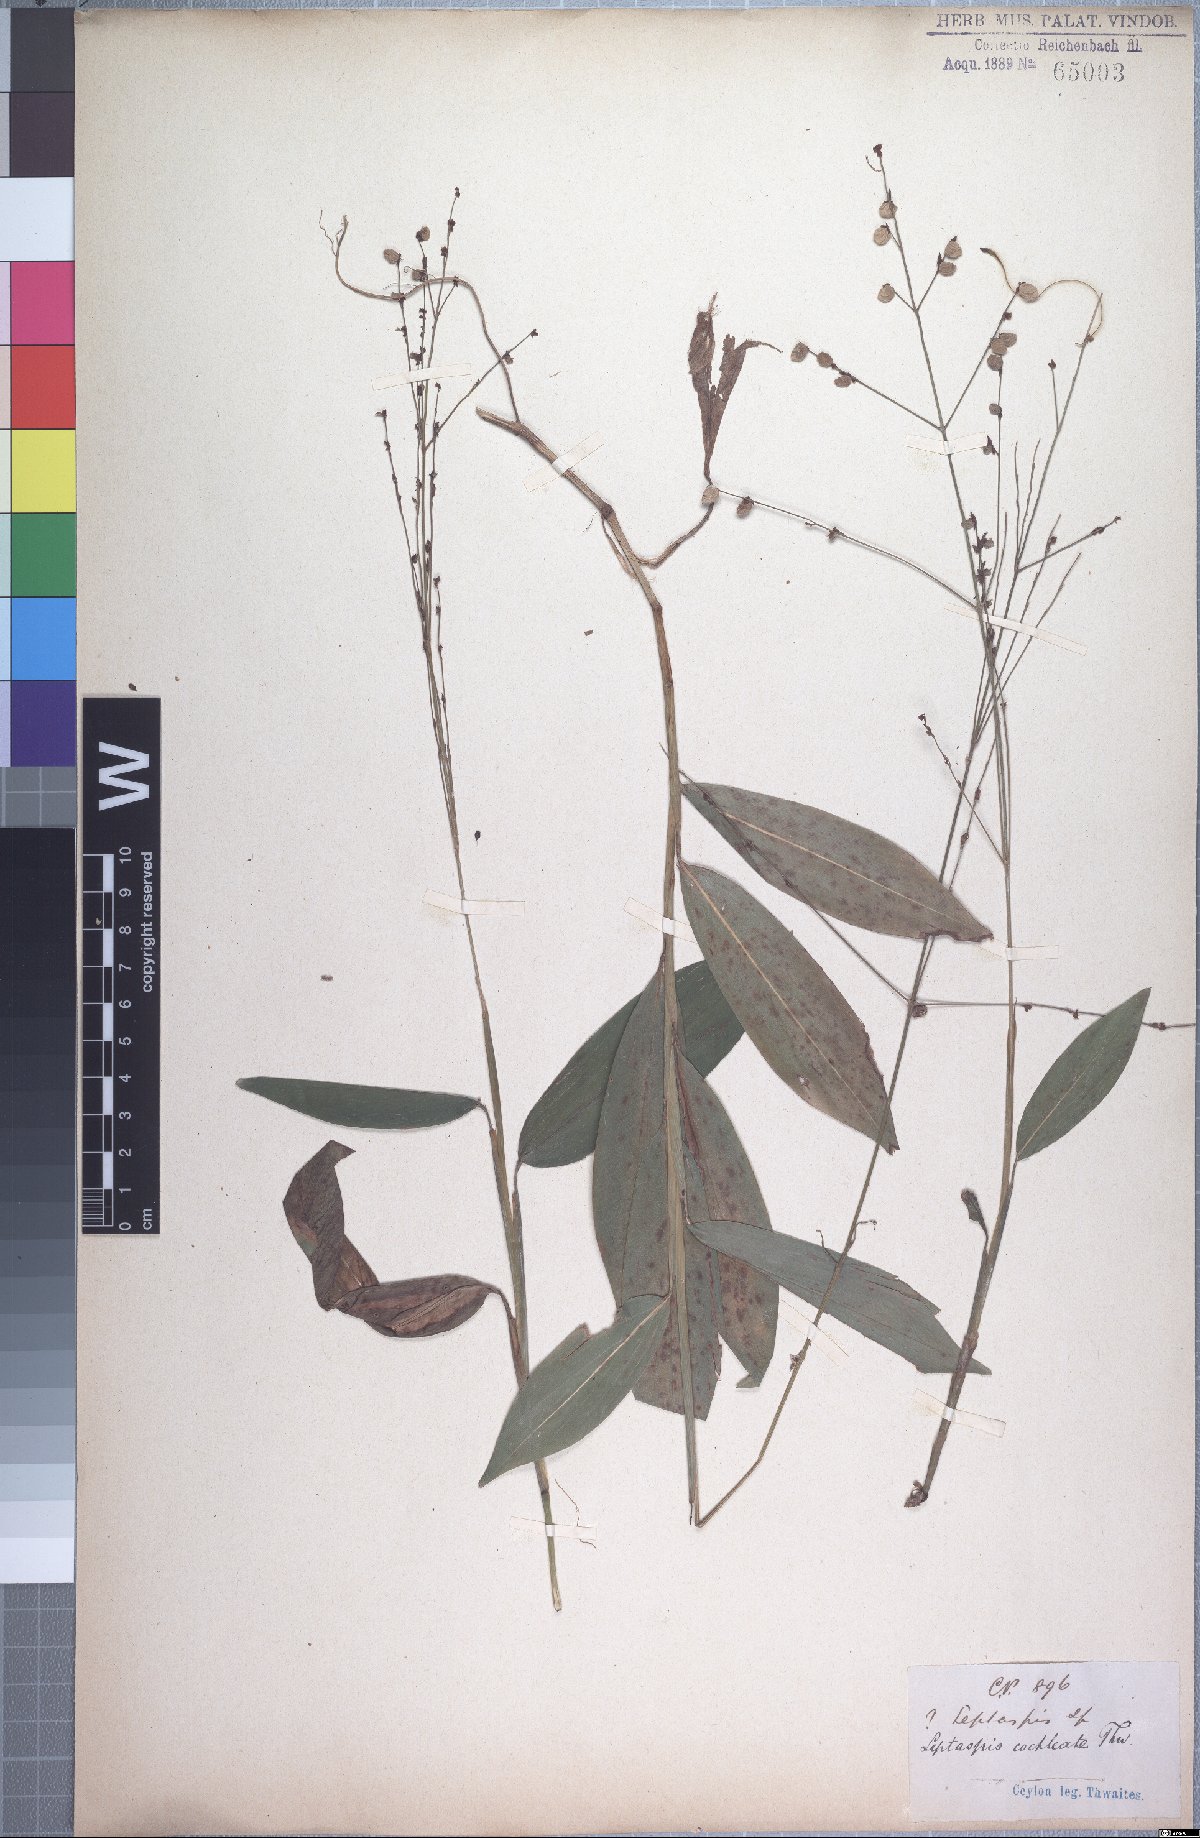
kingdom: Plantae
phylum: Tracheophyta
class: Liliopsida
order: Poales
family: Poaceae
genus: Leptaspis
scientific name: Leptaspis zeylanica
